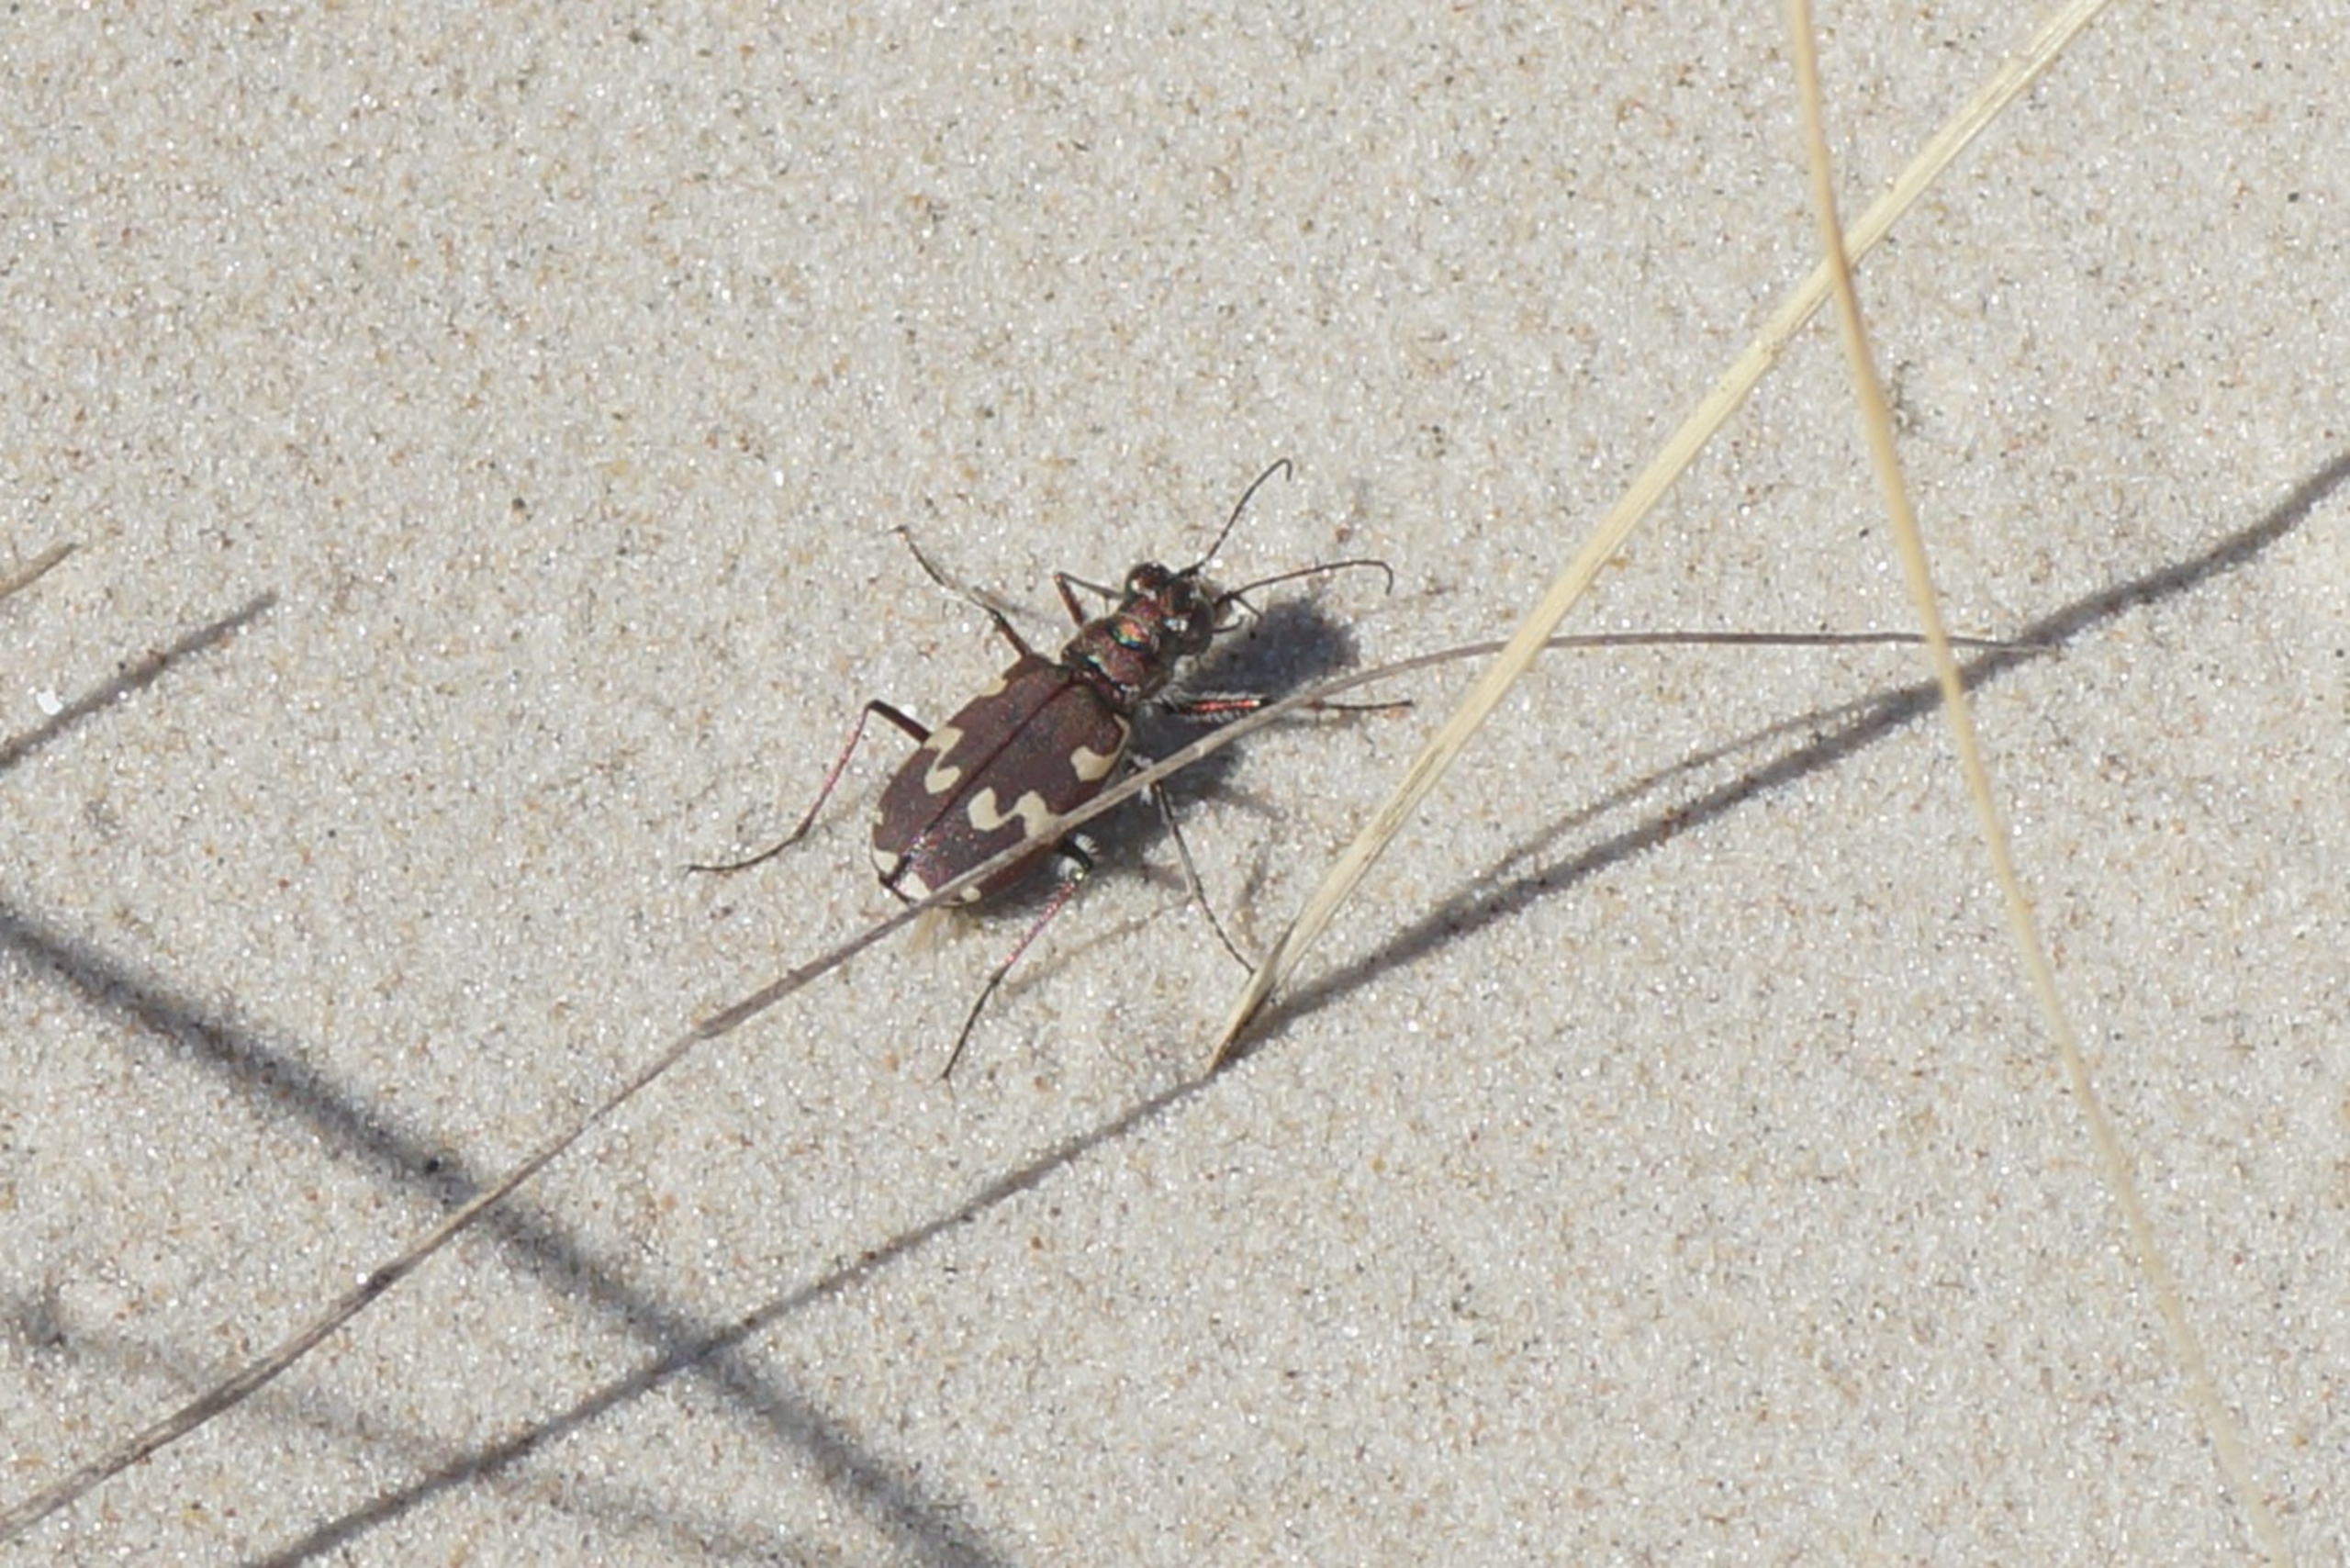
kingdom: Animalia
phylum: Arthropoda
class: Insecta
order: Coleoptera
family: Carabidae
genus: Cicindela
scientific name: Cicindela maritima
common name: Klitsandspringer
